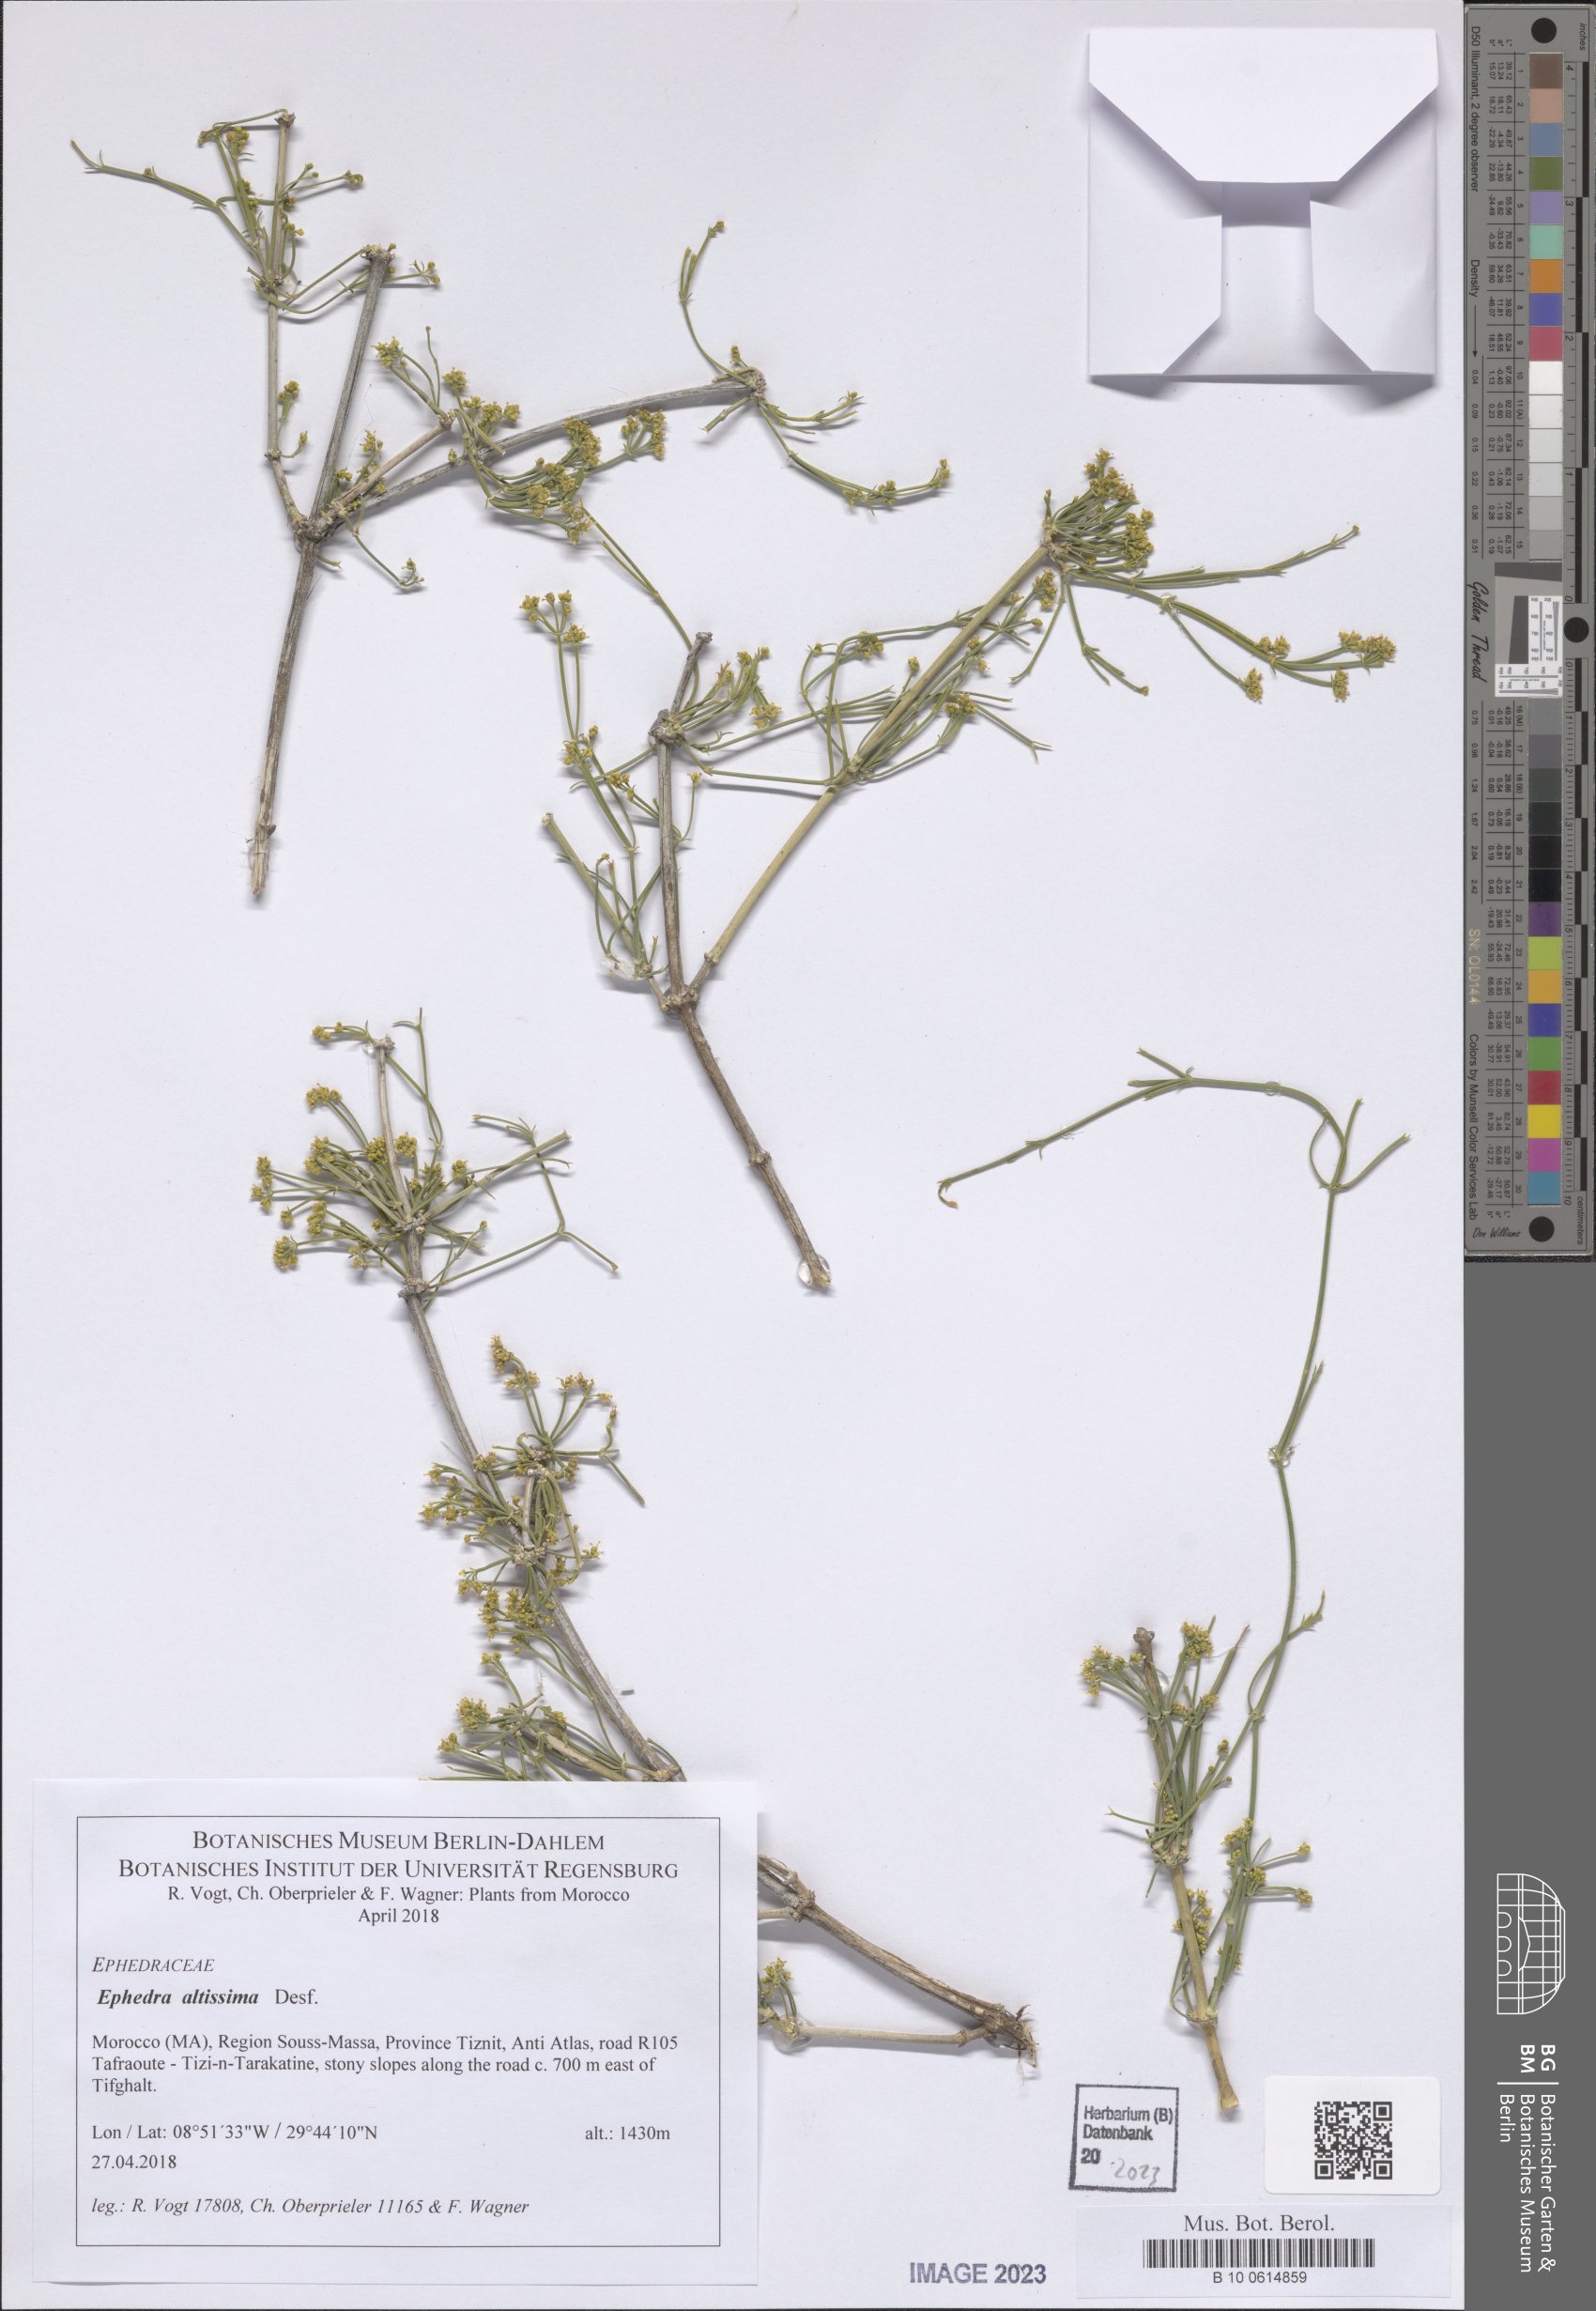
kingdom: Plantae
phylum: Tracheophyta
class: Gnetopsida
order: Ephedrales
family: Ephedraceae
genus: Ephedra
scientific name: Ephedra altissima
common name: High-climbing jointfir
